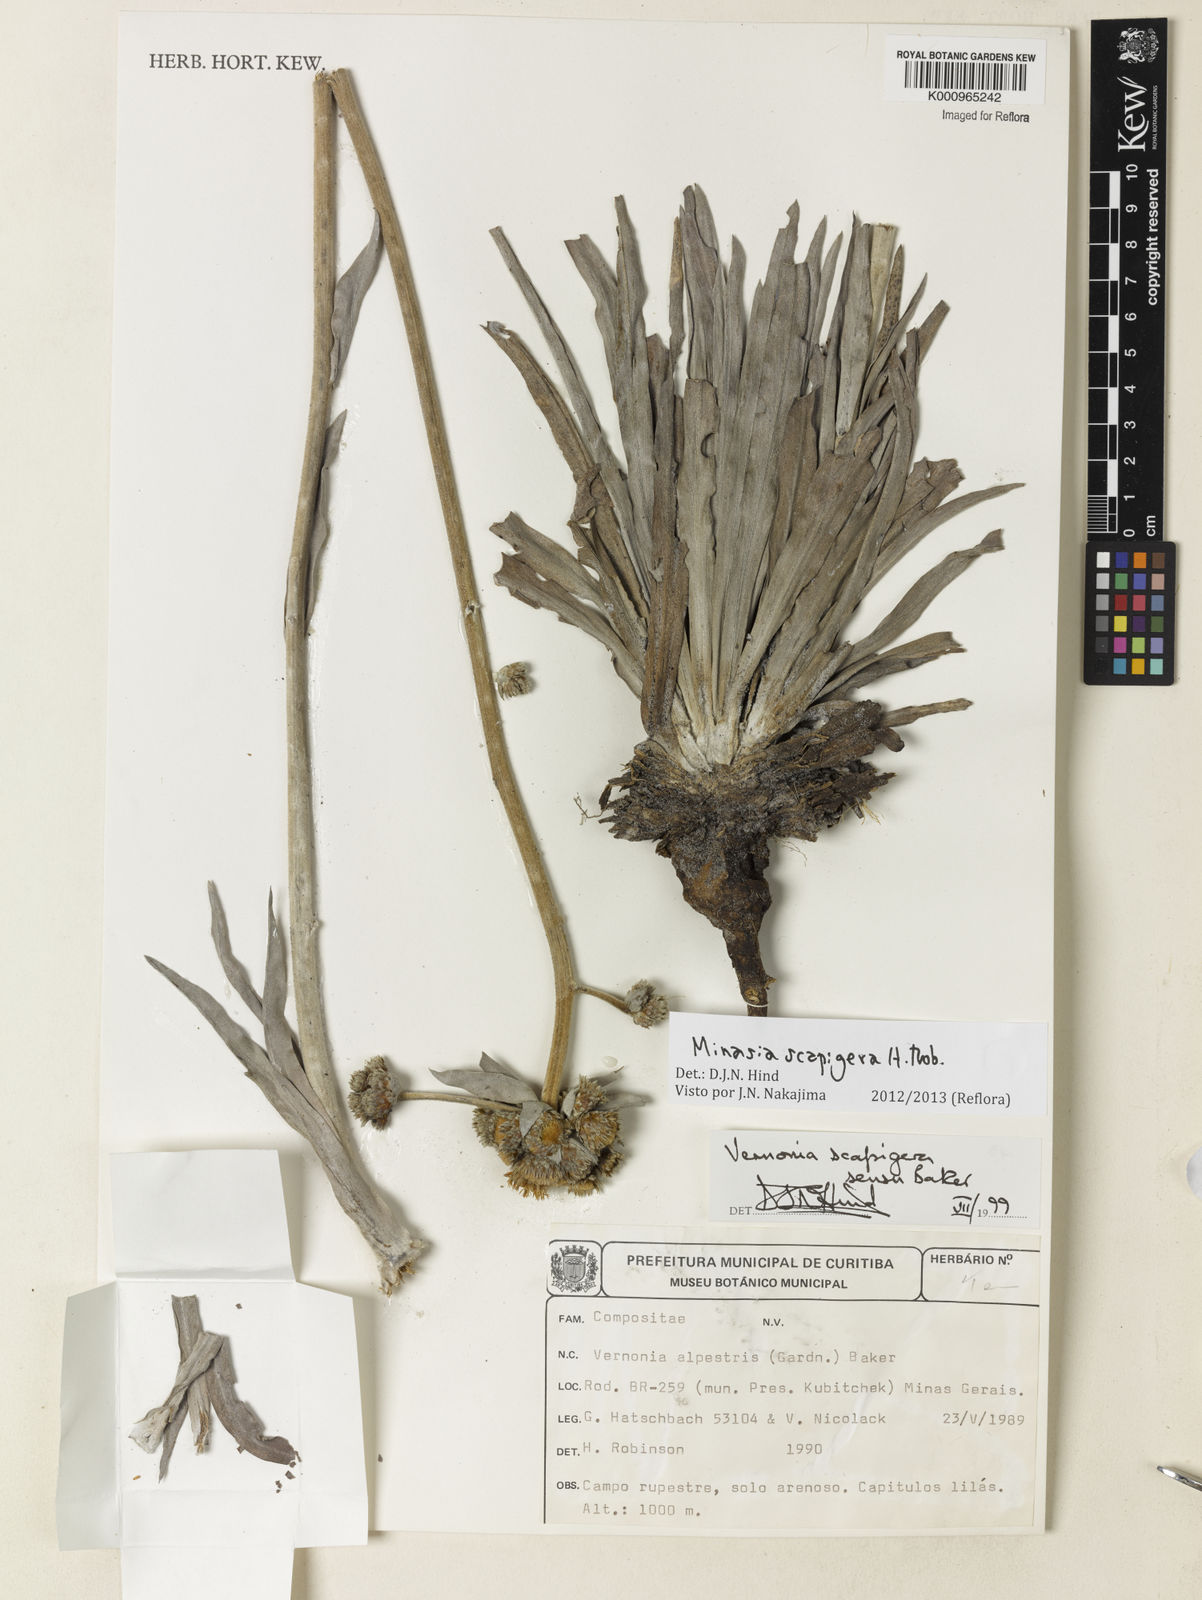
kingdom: Plantae
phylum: Tracheophyta
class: Magnoliopsida
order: Asterales
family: Asteraceae
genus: Minasia
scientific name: Minasia scapigera
